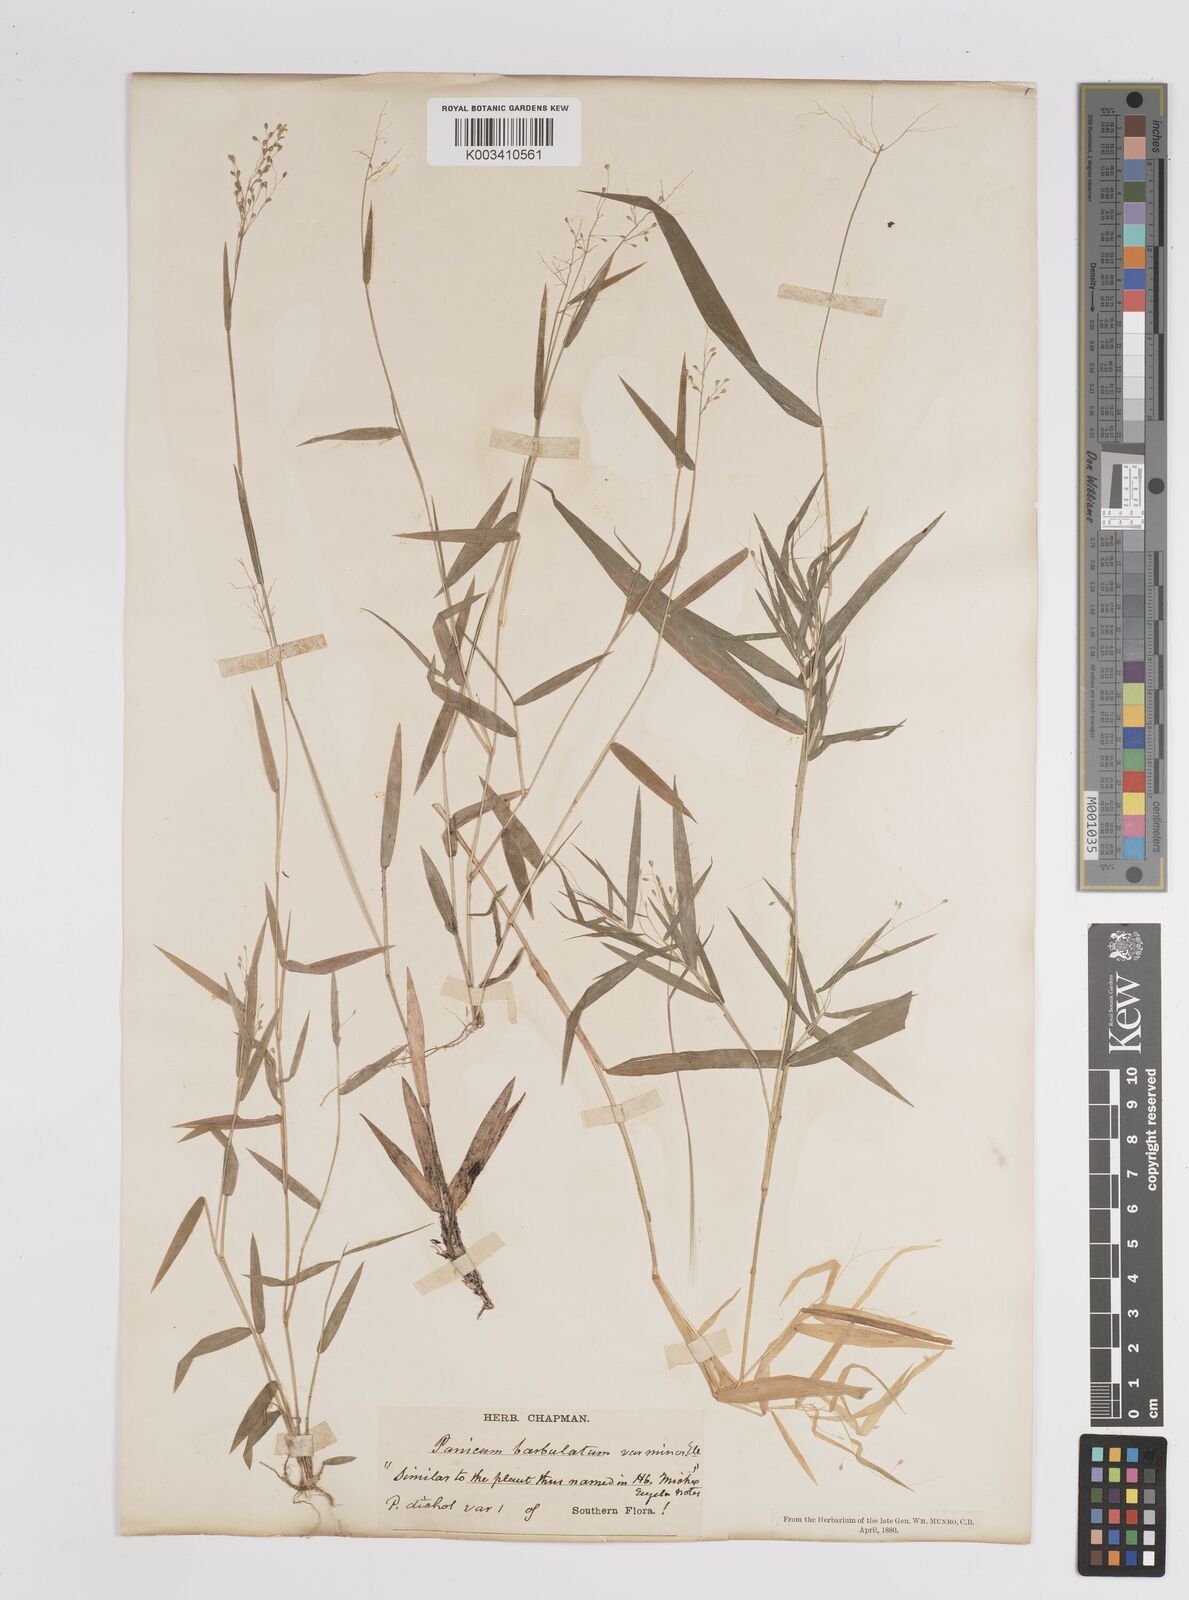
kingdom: Plantae
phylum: Tracheophyta
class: Liliopsida
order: Poales
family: Poaceae
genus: Dichanthelium
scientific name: Dichanthelium dichotomum
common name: Cypress panicgrass
